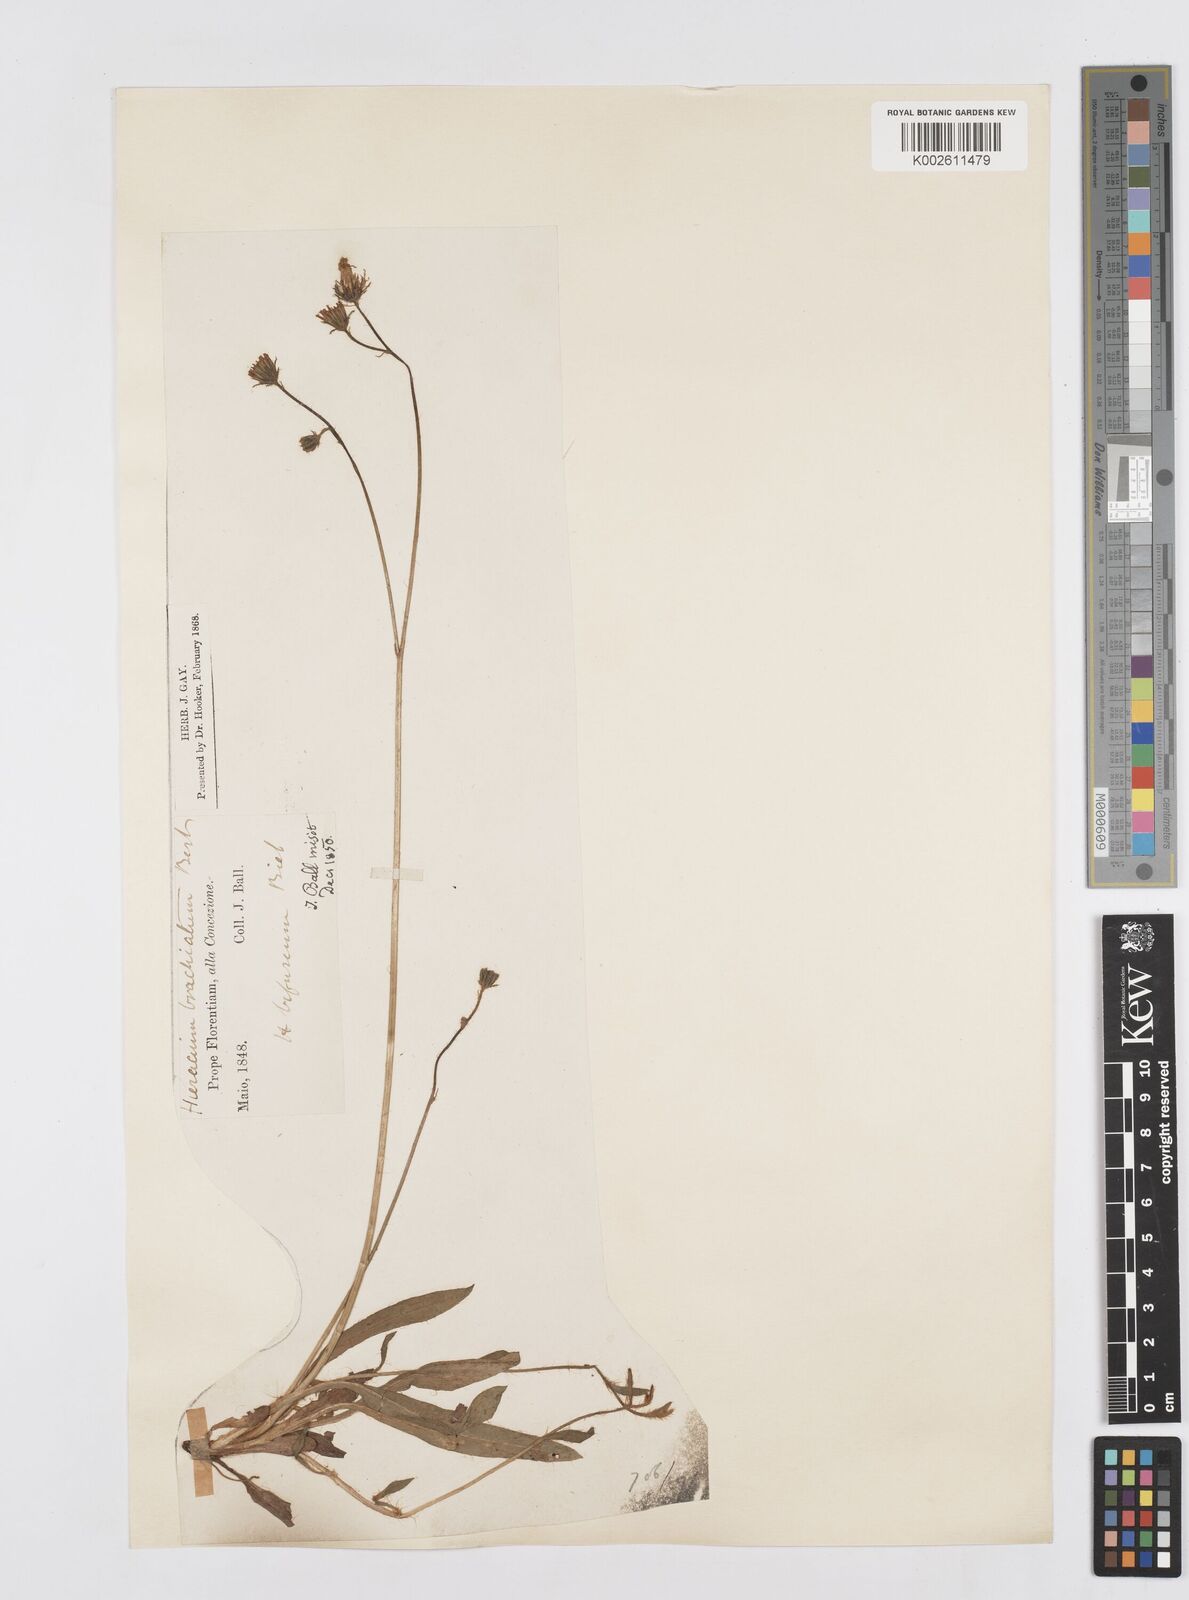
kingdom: Plantae
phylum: Tracheophyta
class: Magnoliopsida
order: Asterales
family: Asteraceae
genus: Pilosella
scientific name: Pilosella acutifolia
